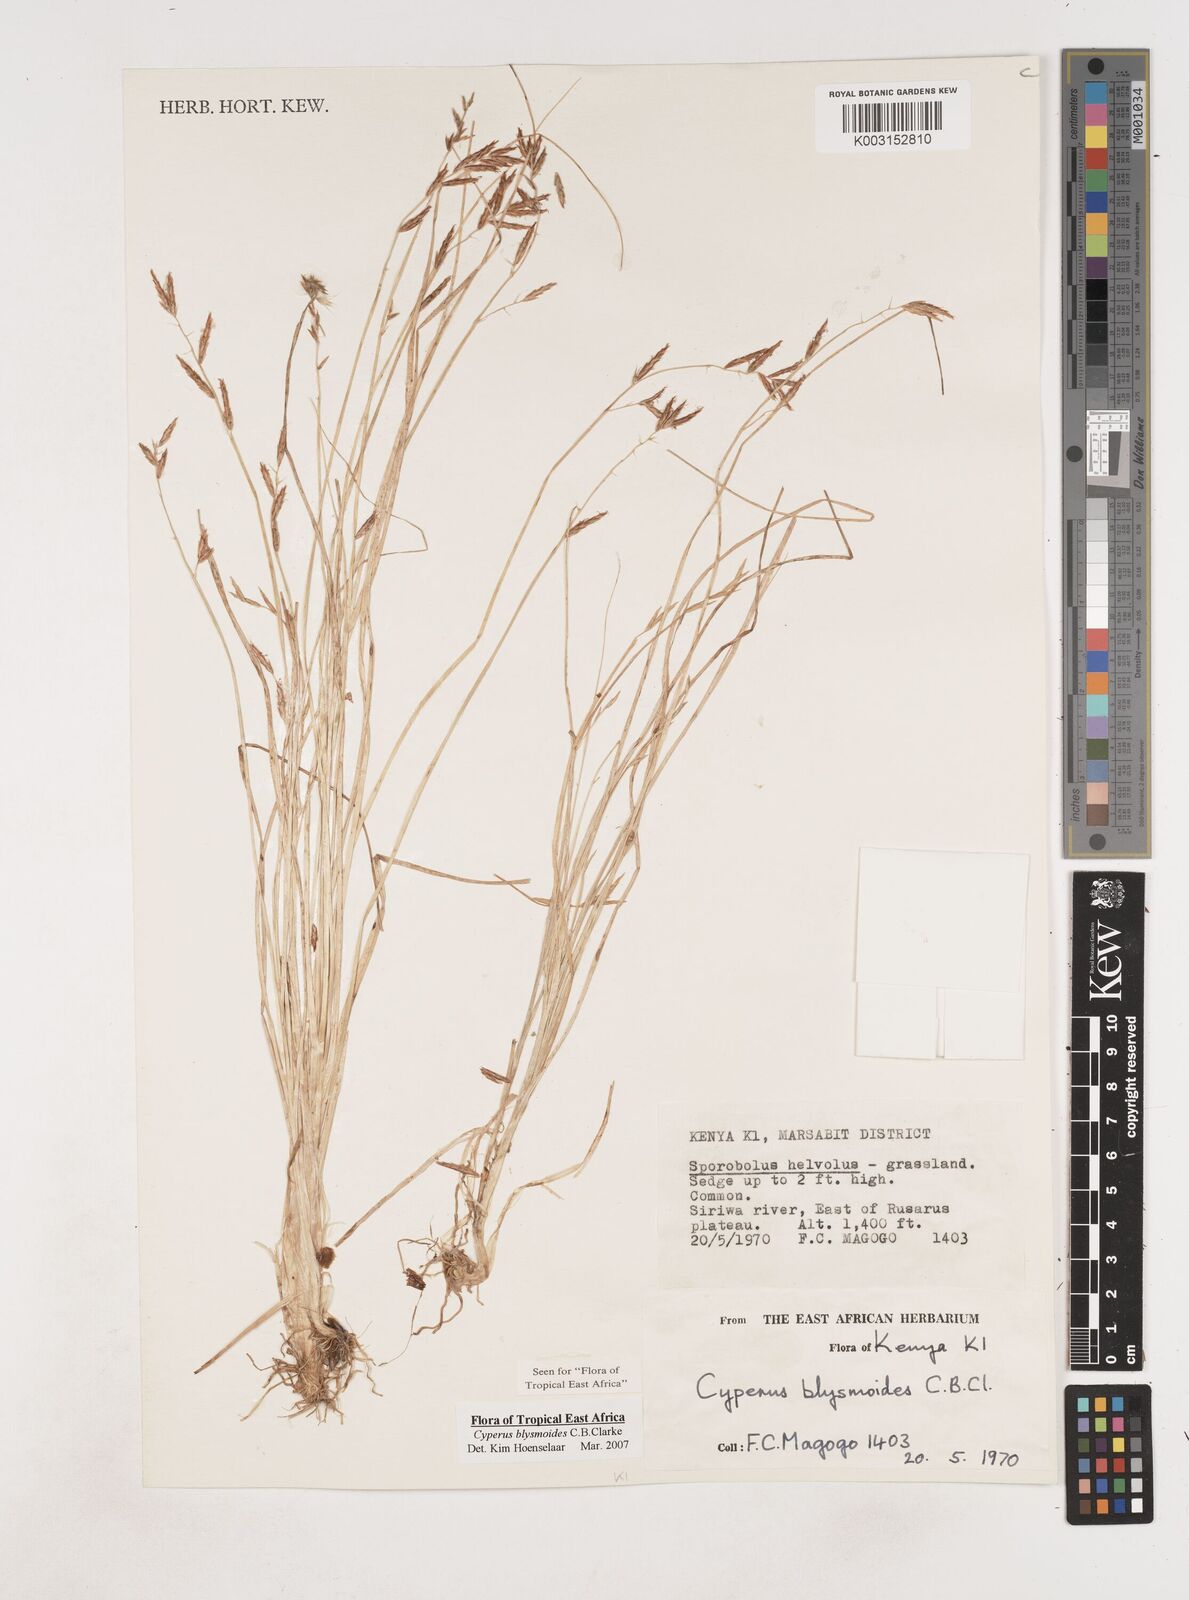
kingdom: Plantae
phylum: Tracheophyta
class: Liliopsida
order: Poales
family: Cyperaceae
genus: Cyperus
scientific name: Cyperus blysmoides
